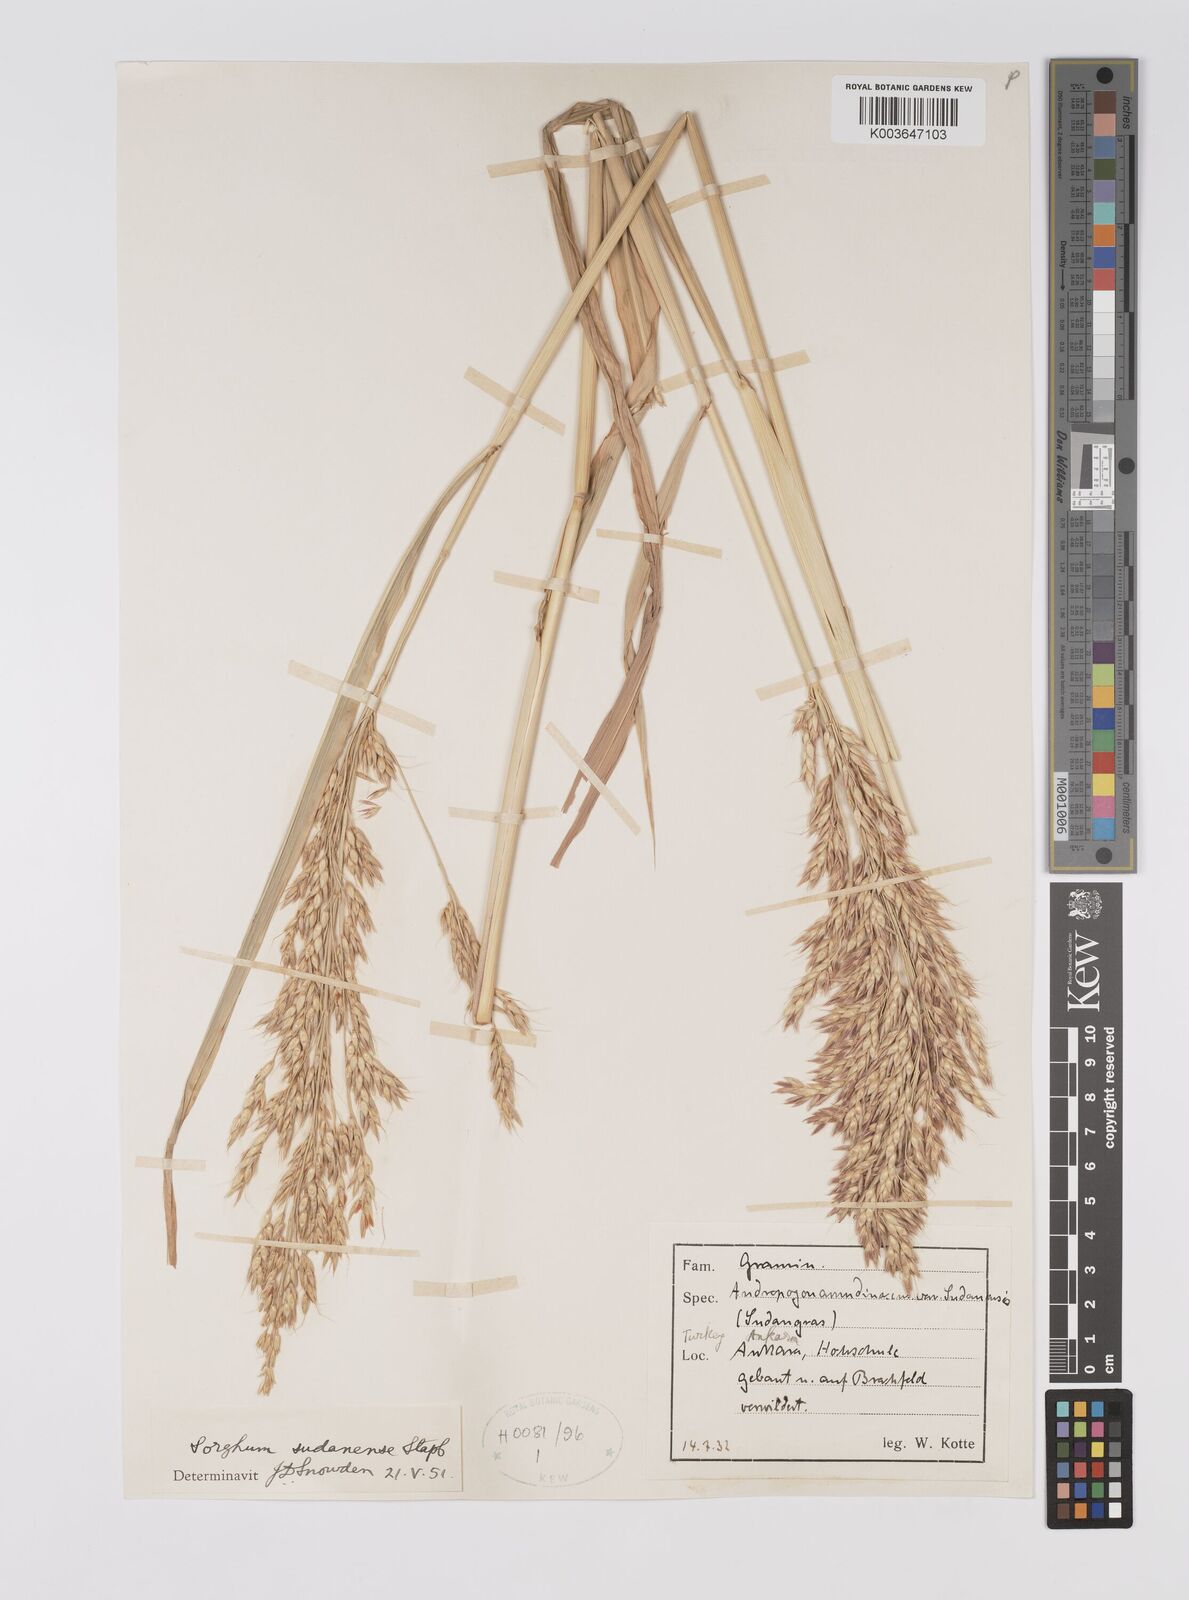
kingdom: Plantae
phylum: Tracheophyta
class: Liliopsida
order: Poales
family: Poaceae
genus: Sorghum
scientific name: Sorghum drummondii
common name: Sudangrass
